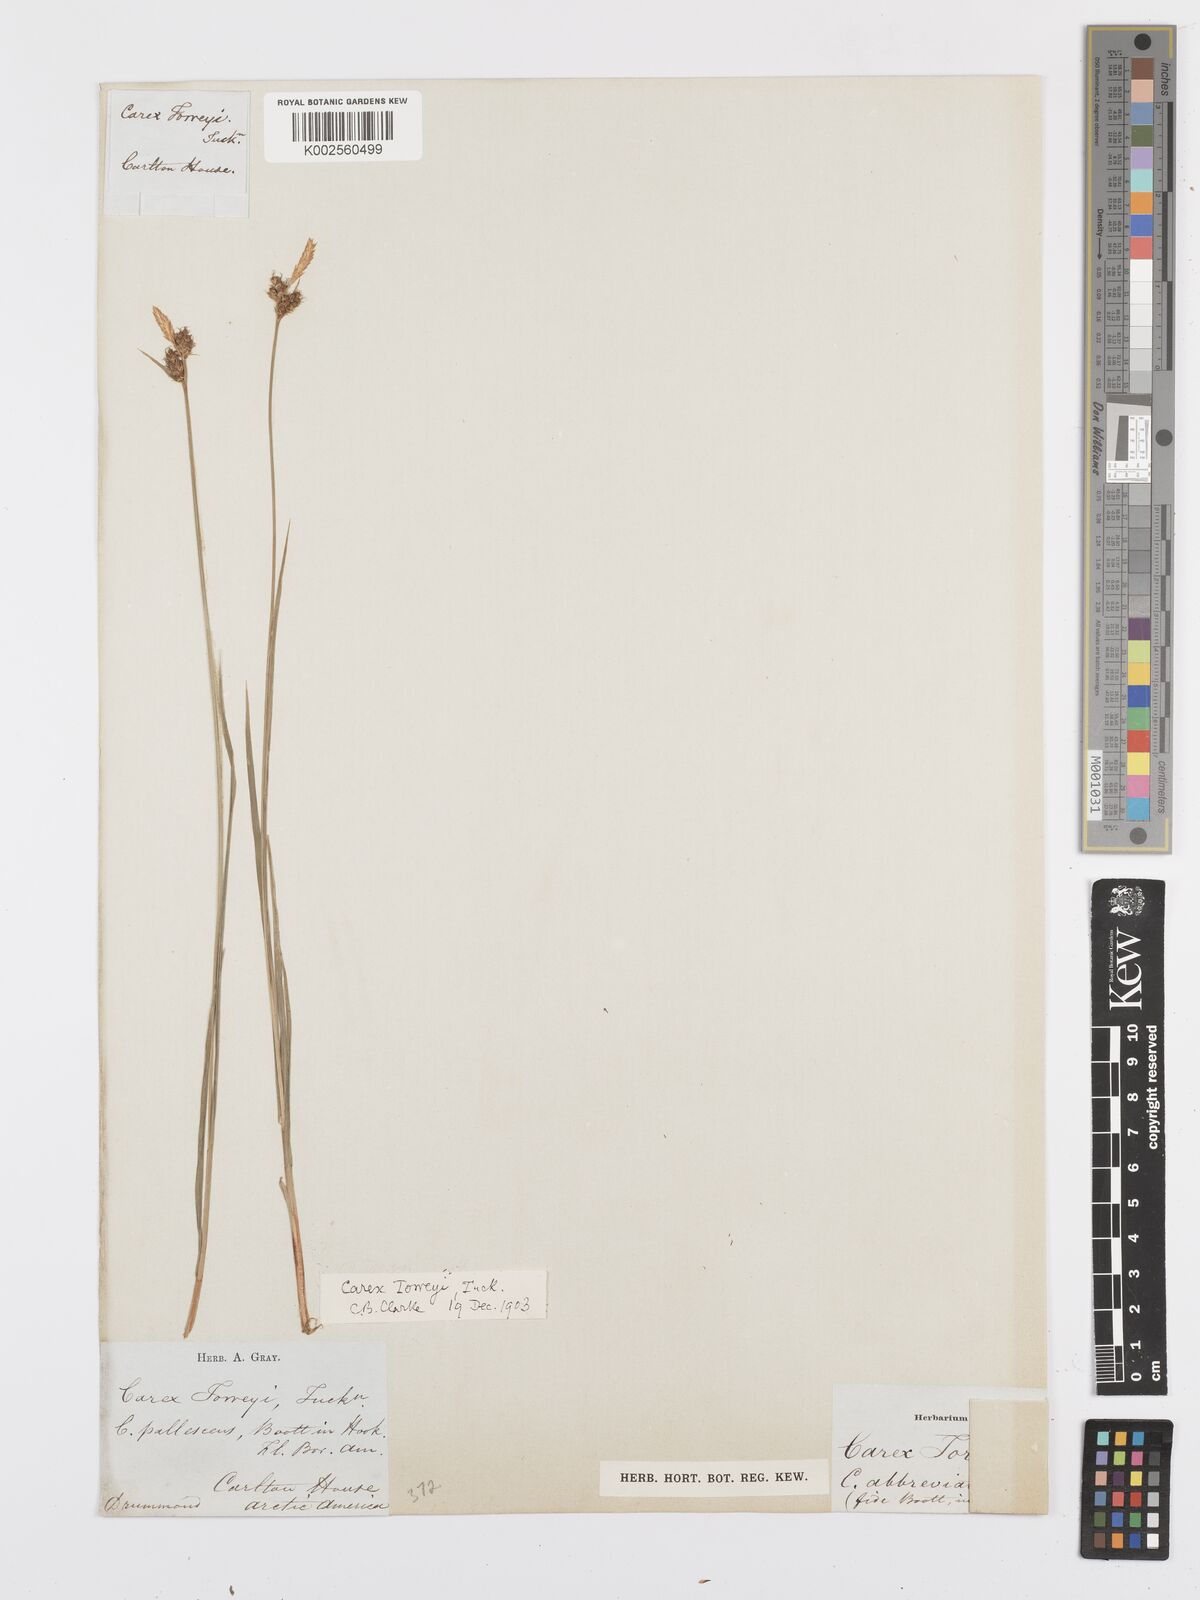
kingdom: Plantae
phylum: Tracheophyta
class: Liliopsida
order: Poales
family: Cyperaceae
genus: Carex
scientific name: Carex torreyi
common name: Torrey's sedge
